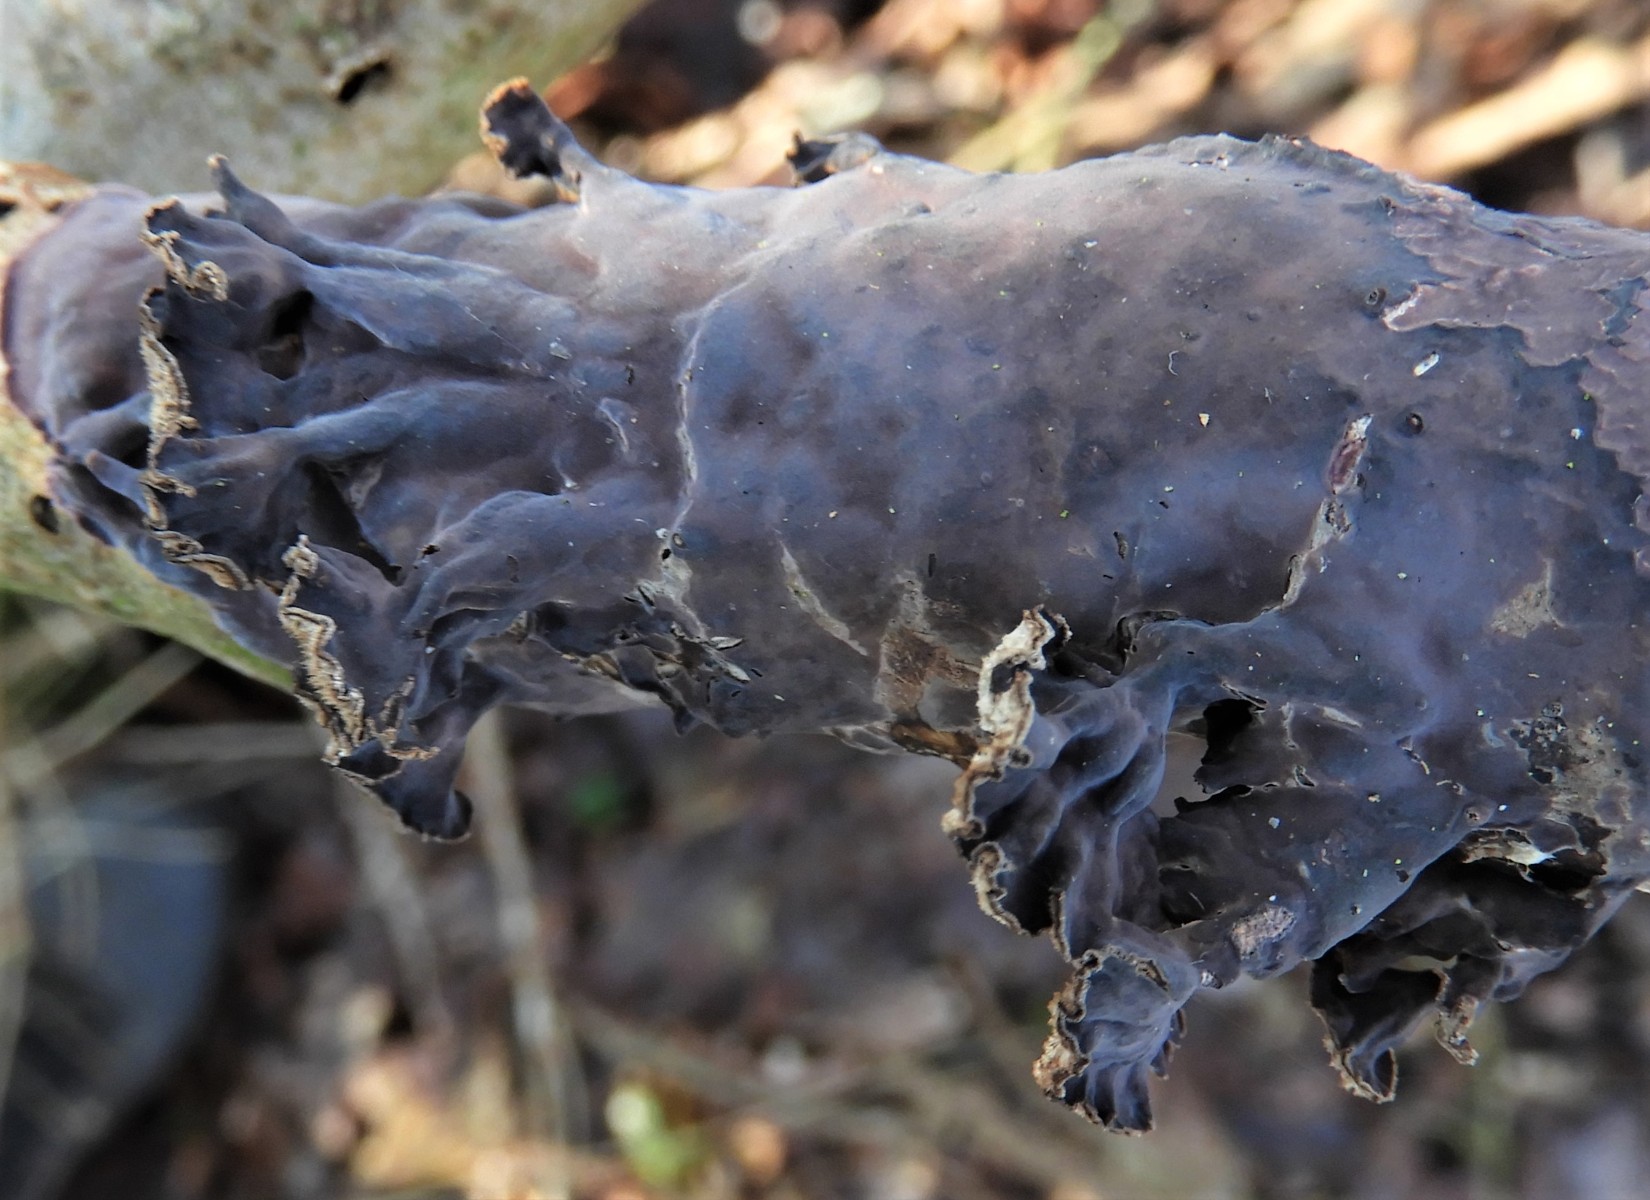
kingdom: Fungi
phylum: Basidiomycota
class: Agaricomycetes
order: Agaricales
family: Cyphellaceae
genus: Chondrostereum
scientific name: Chondrostereum purpureum
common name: purpurlædersvamp
